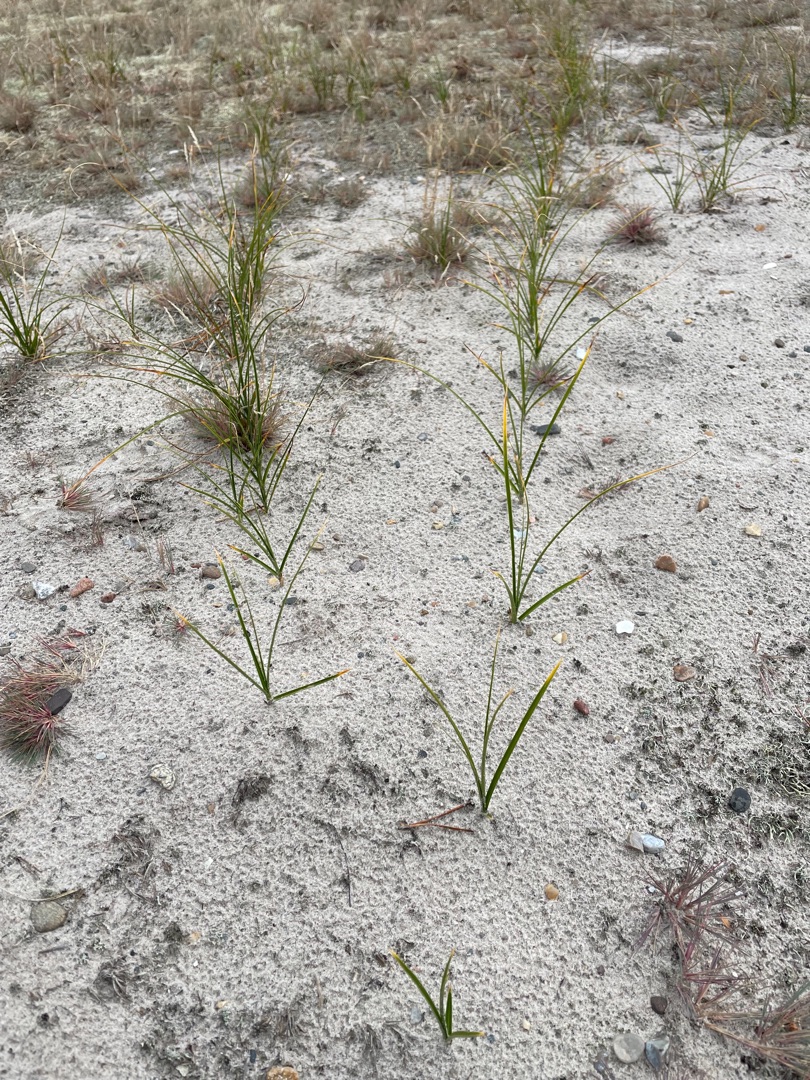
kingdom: Plantae
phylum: Tracheophyta
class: Liliopsida
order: Poales
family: Cyperaceae
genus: Carex
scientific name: Carex arenaria
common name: Sand-star
